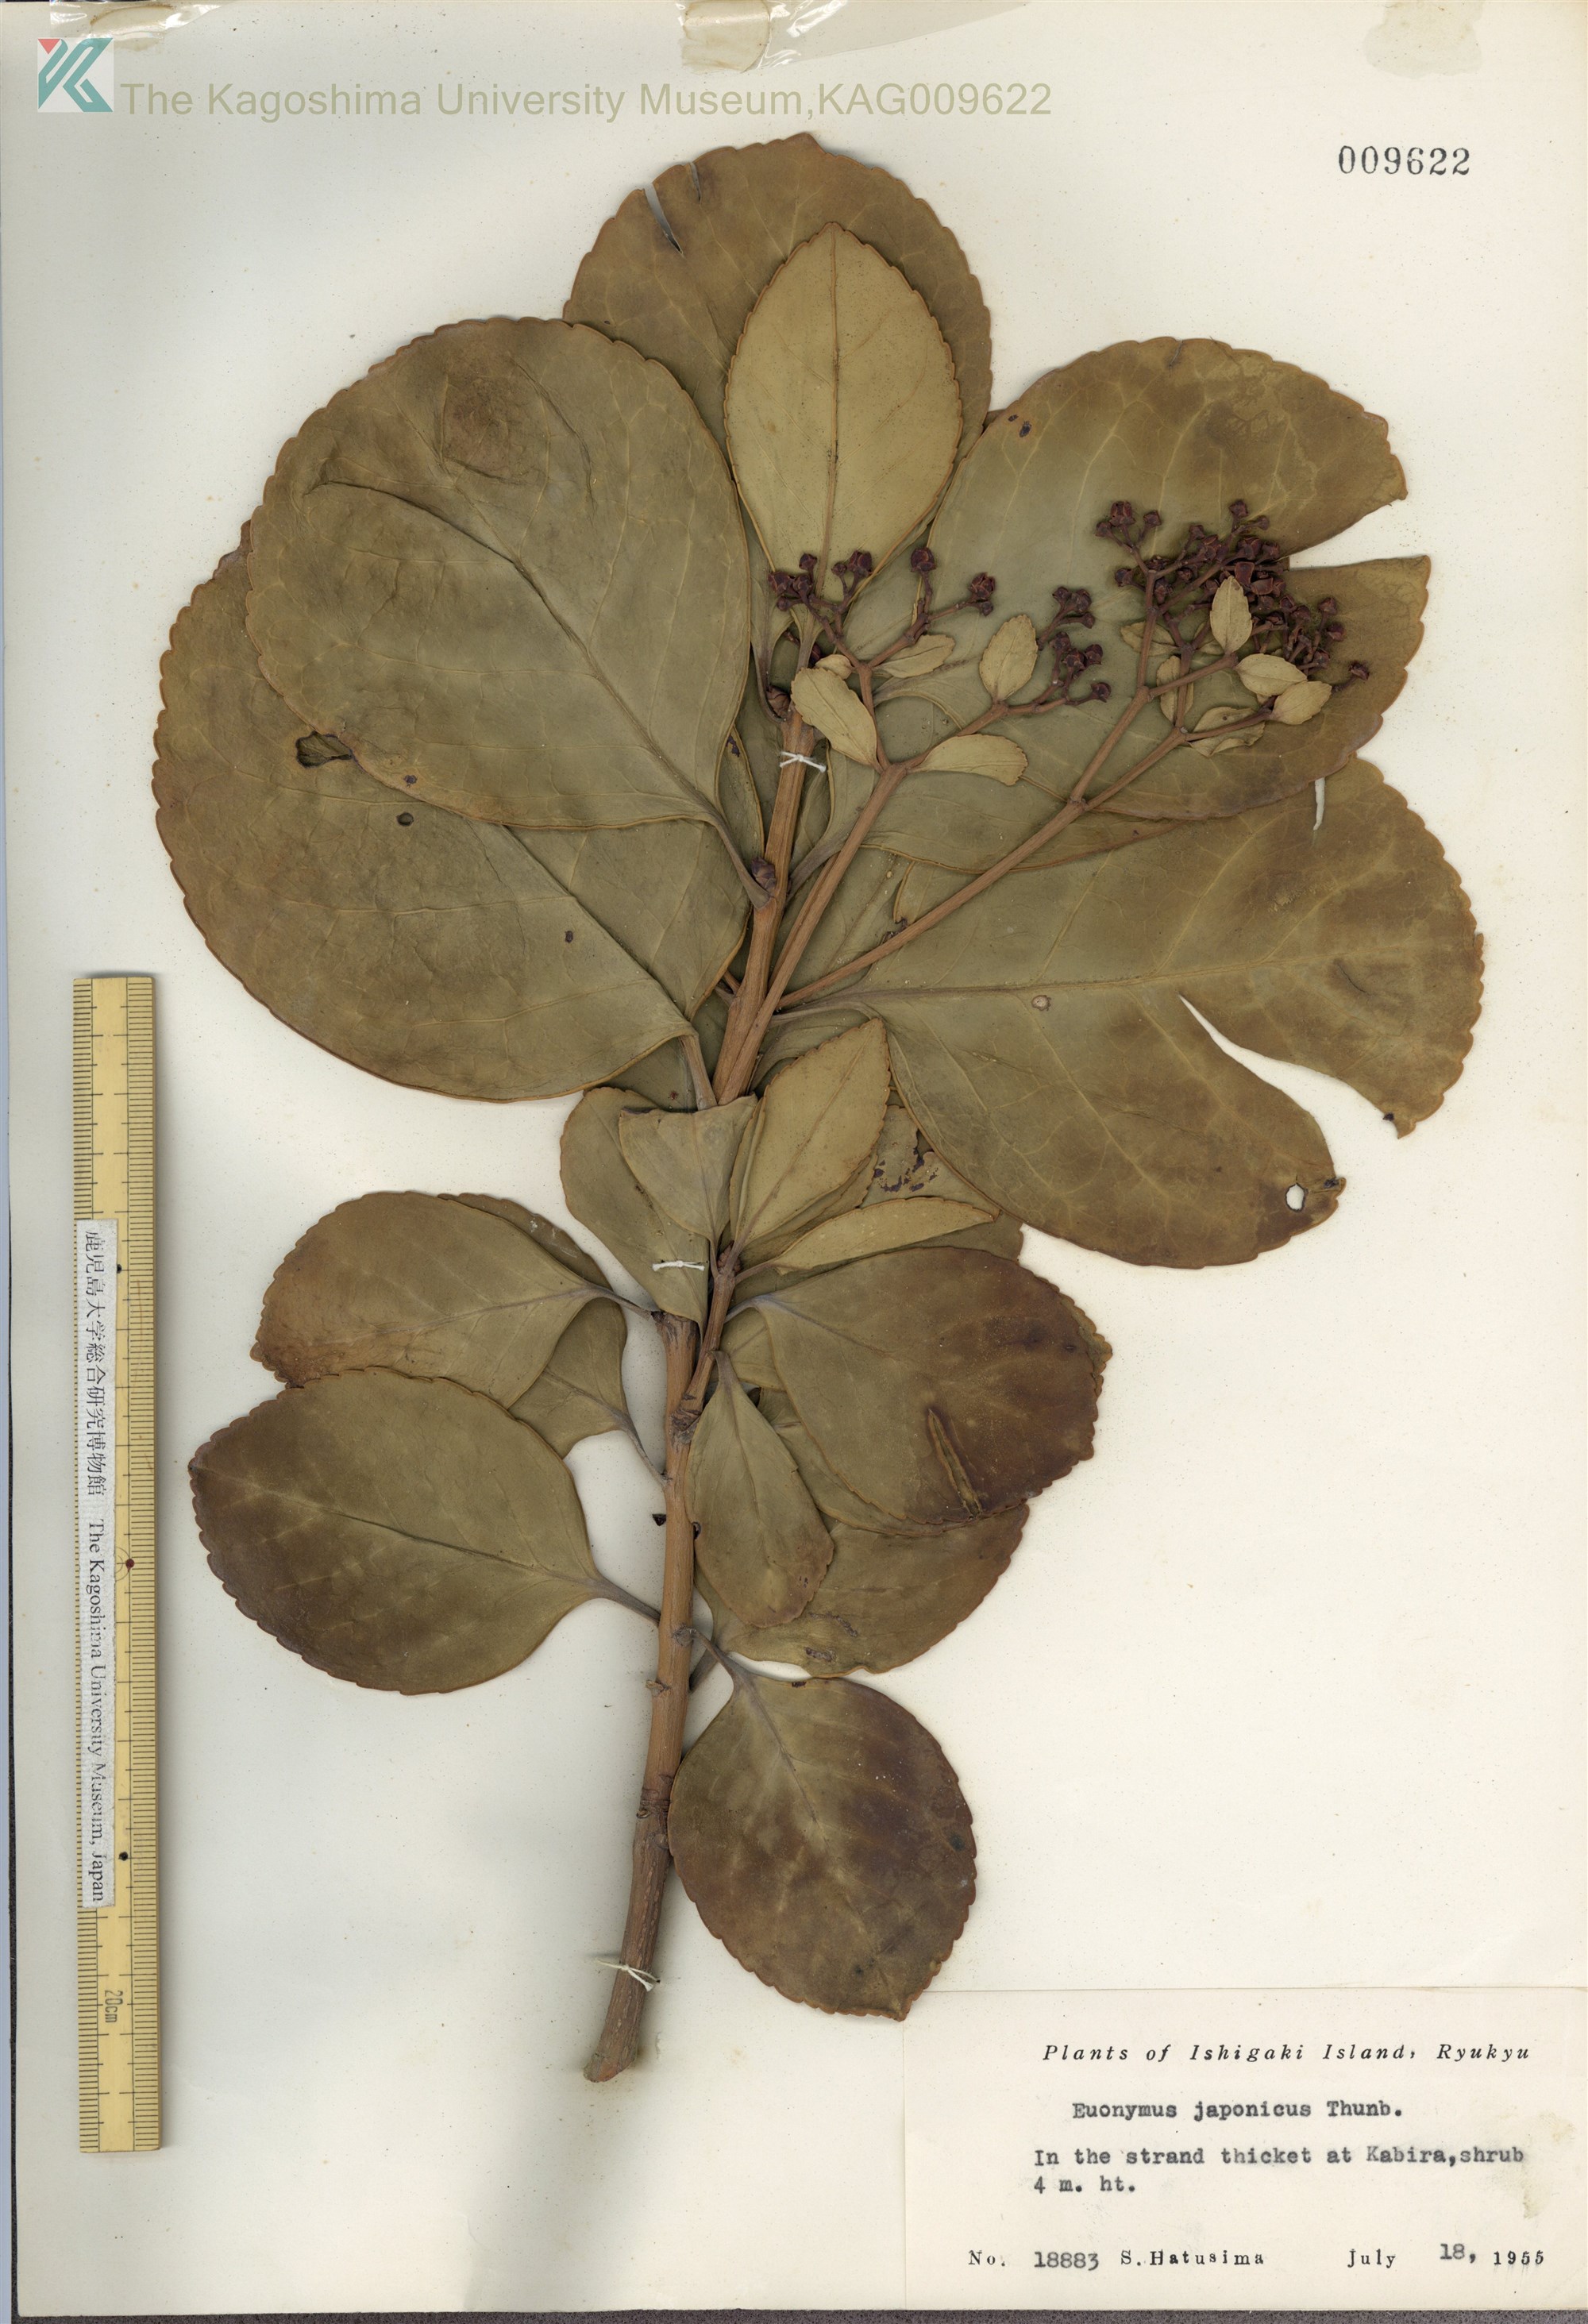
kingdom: Plantae
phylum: Tracheophyta
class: Magnoliopsida
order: Celastrales
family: Celastraceae
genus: Euonymus
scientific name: Euonymus japonicus
